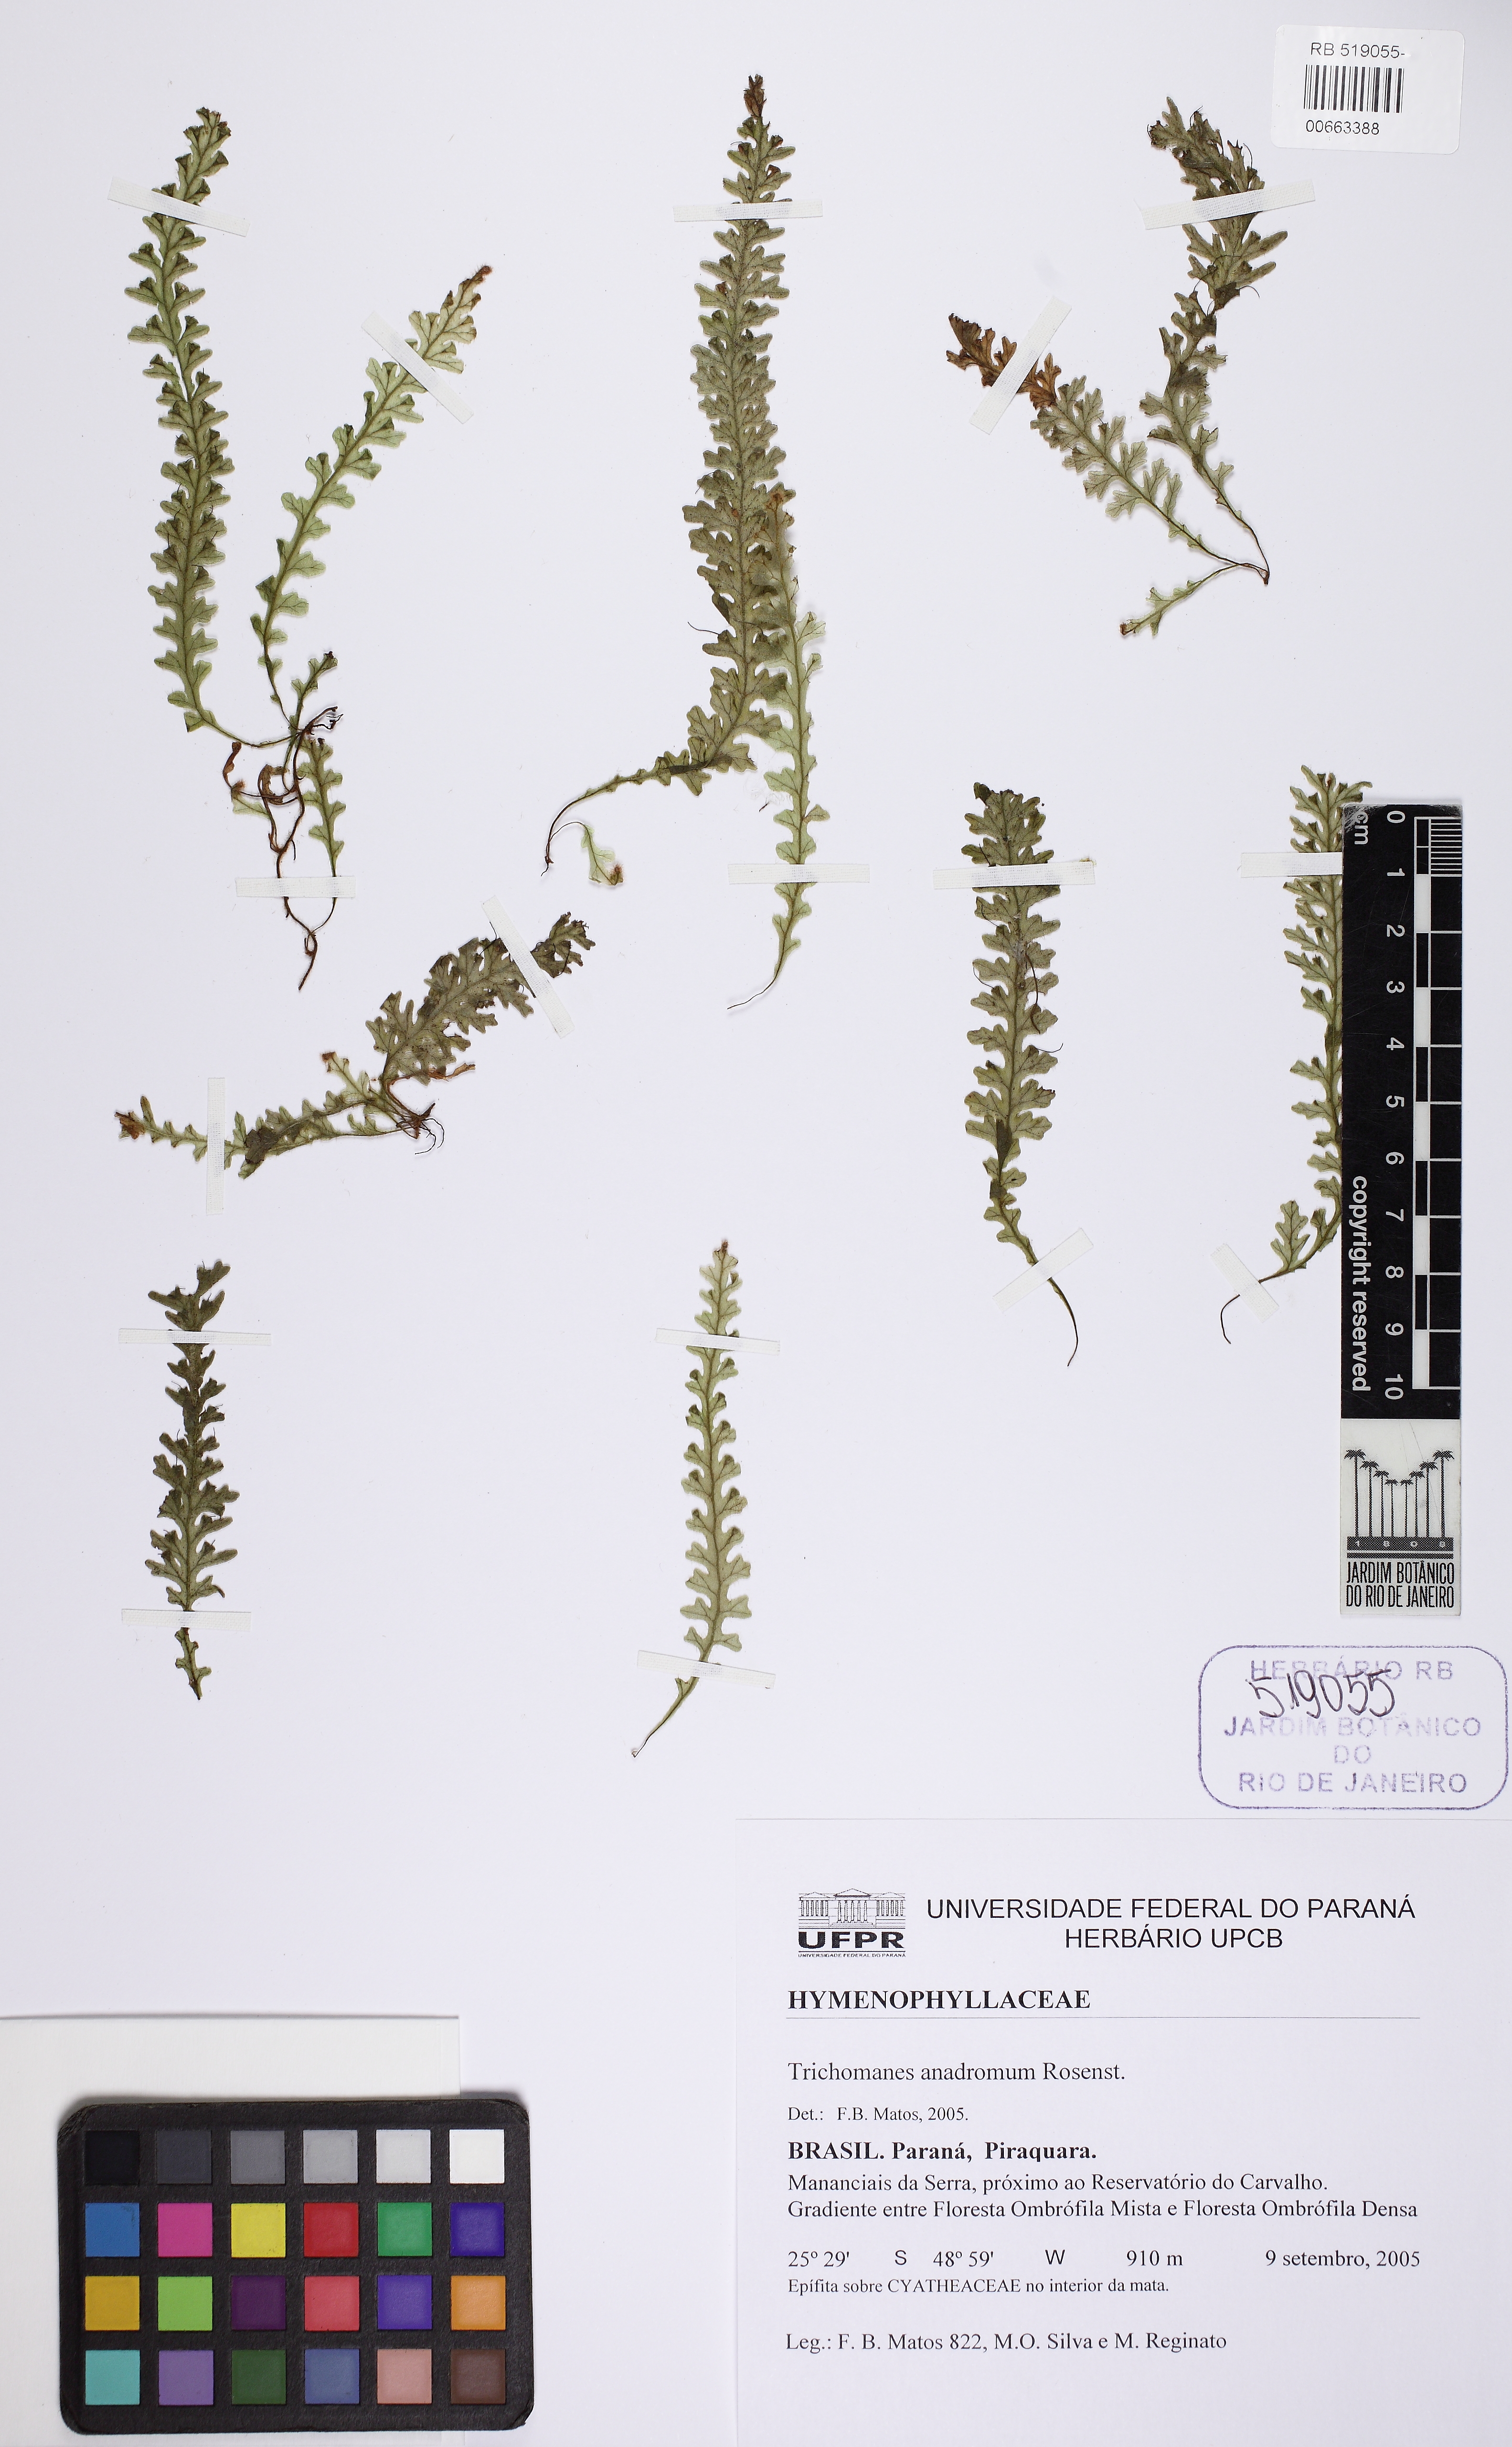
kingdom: Plantae
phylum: Tracheophyta
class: Polypodiopsida
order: Hymenophyllales
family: Hymenophyllaceae
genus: Trichomanes
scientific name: Trichomanes anadromum
